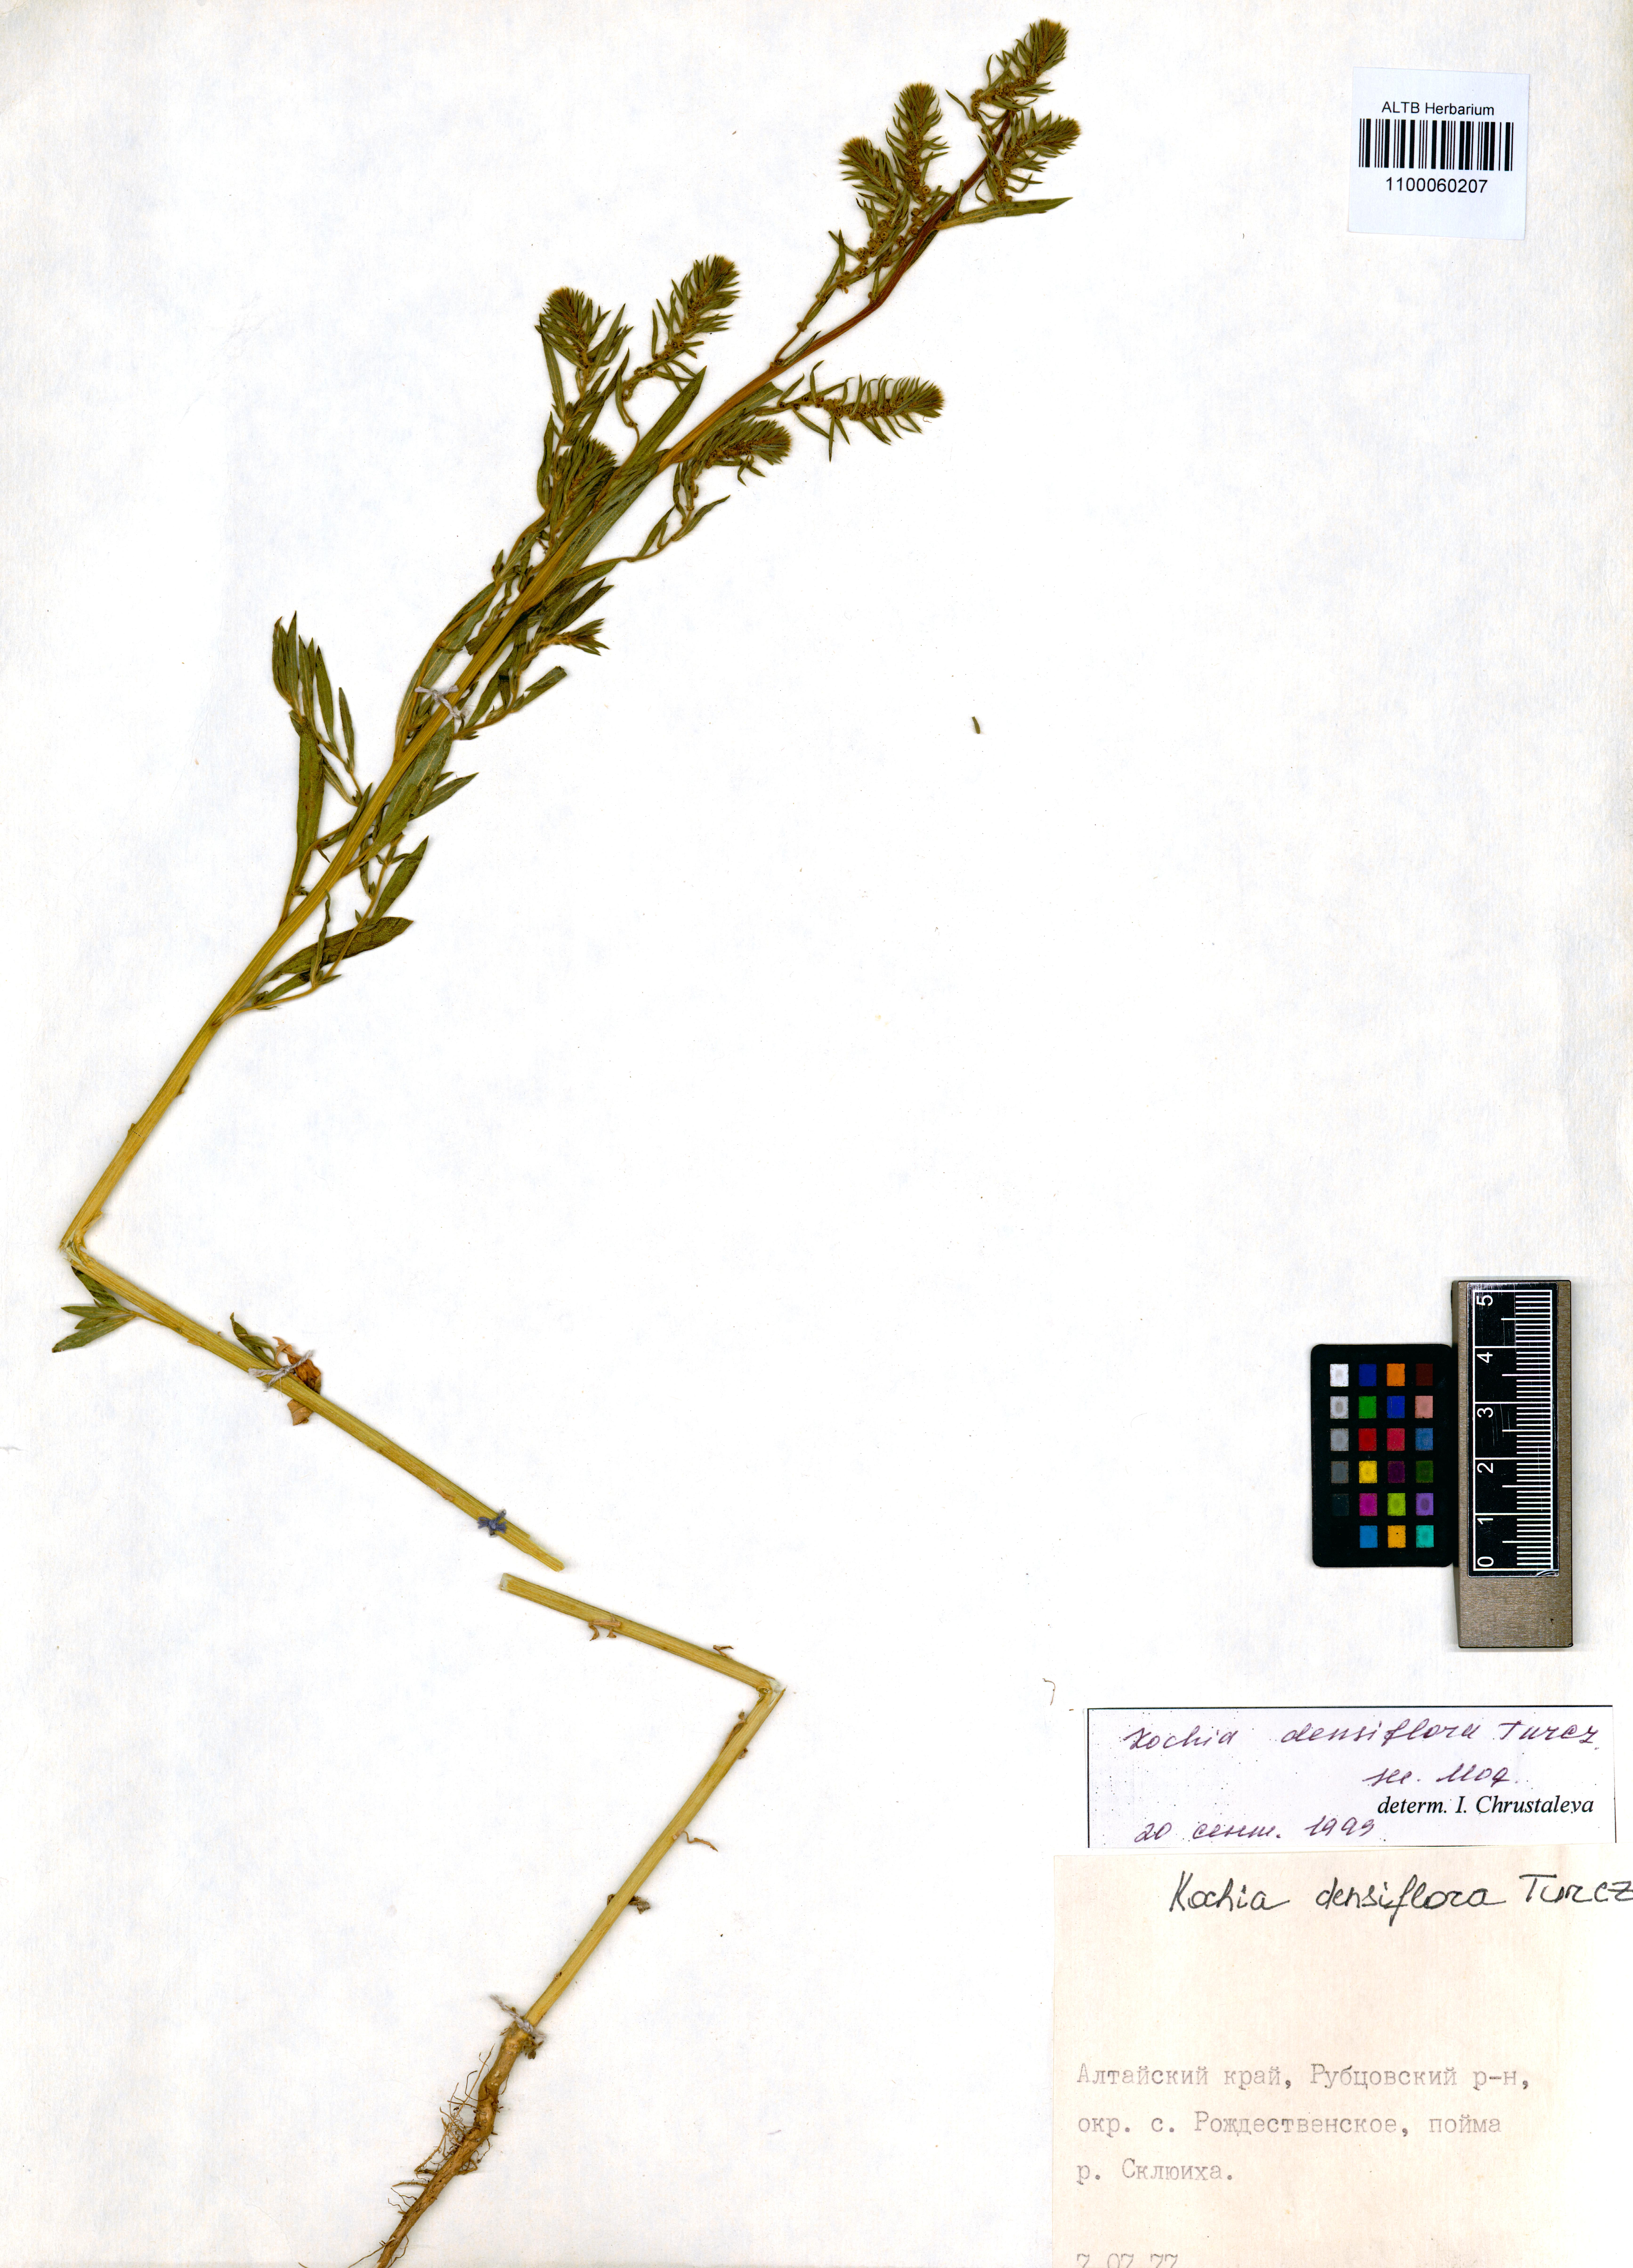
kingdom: Plantae
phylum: Tracheophyta
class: Magnoliopsida
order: Caryophyllales
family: Amaranthaceae
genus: Bassia
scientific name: Bassia scoparia
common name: Belvedere
